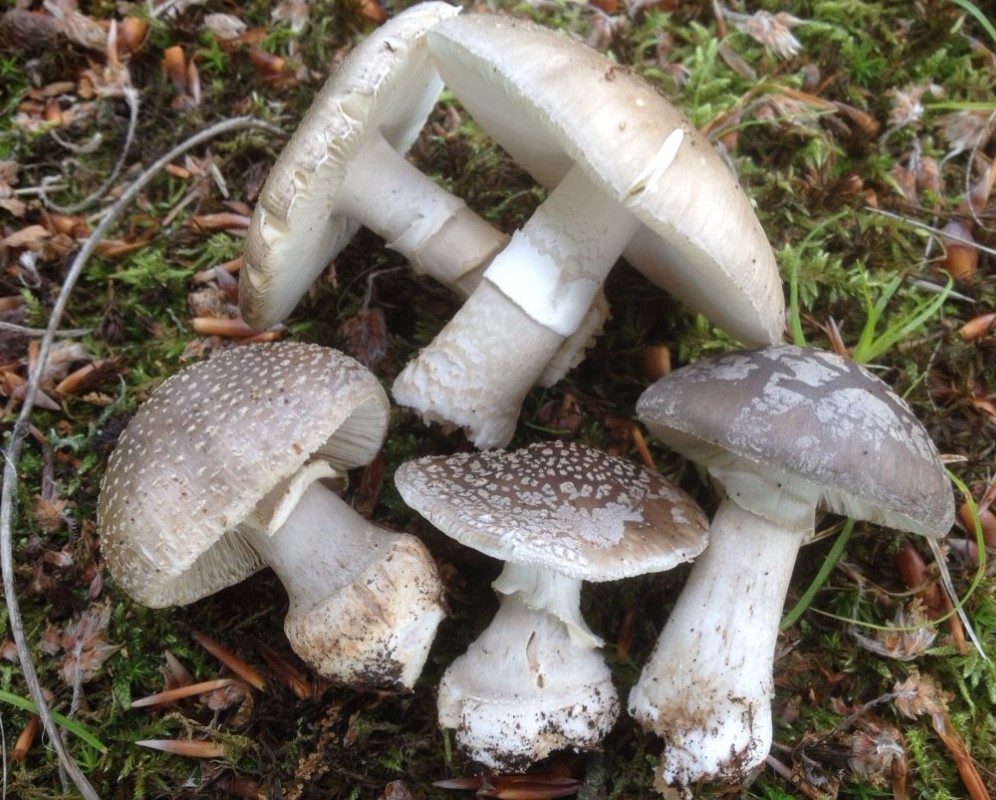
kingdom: Fungi
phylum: Basidiomycota
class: Agaricomycetes
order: Agaricales
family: Amanitaceae
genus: Amanita
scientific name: Amanita
